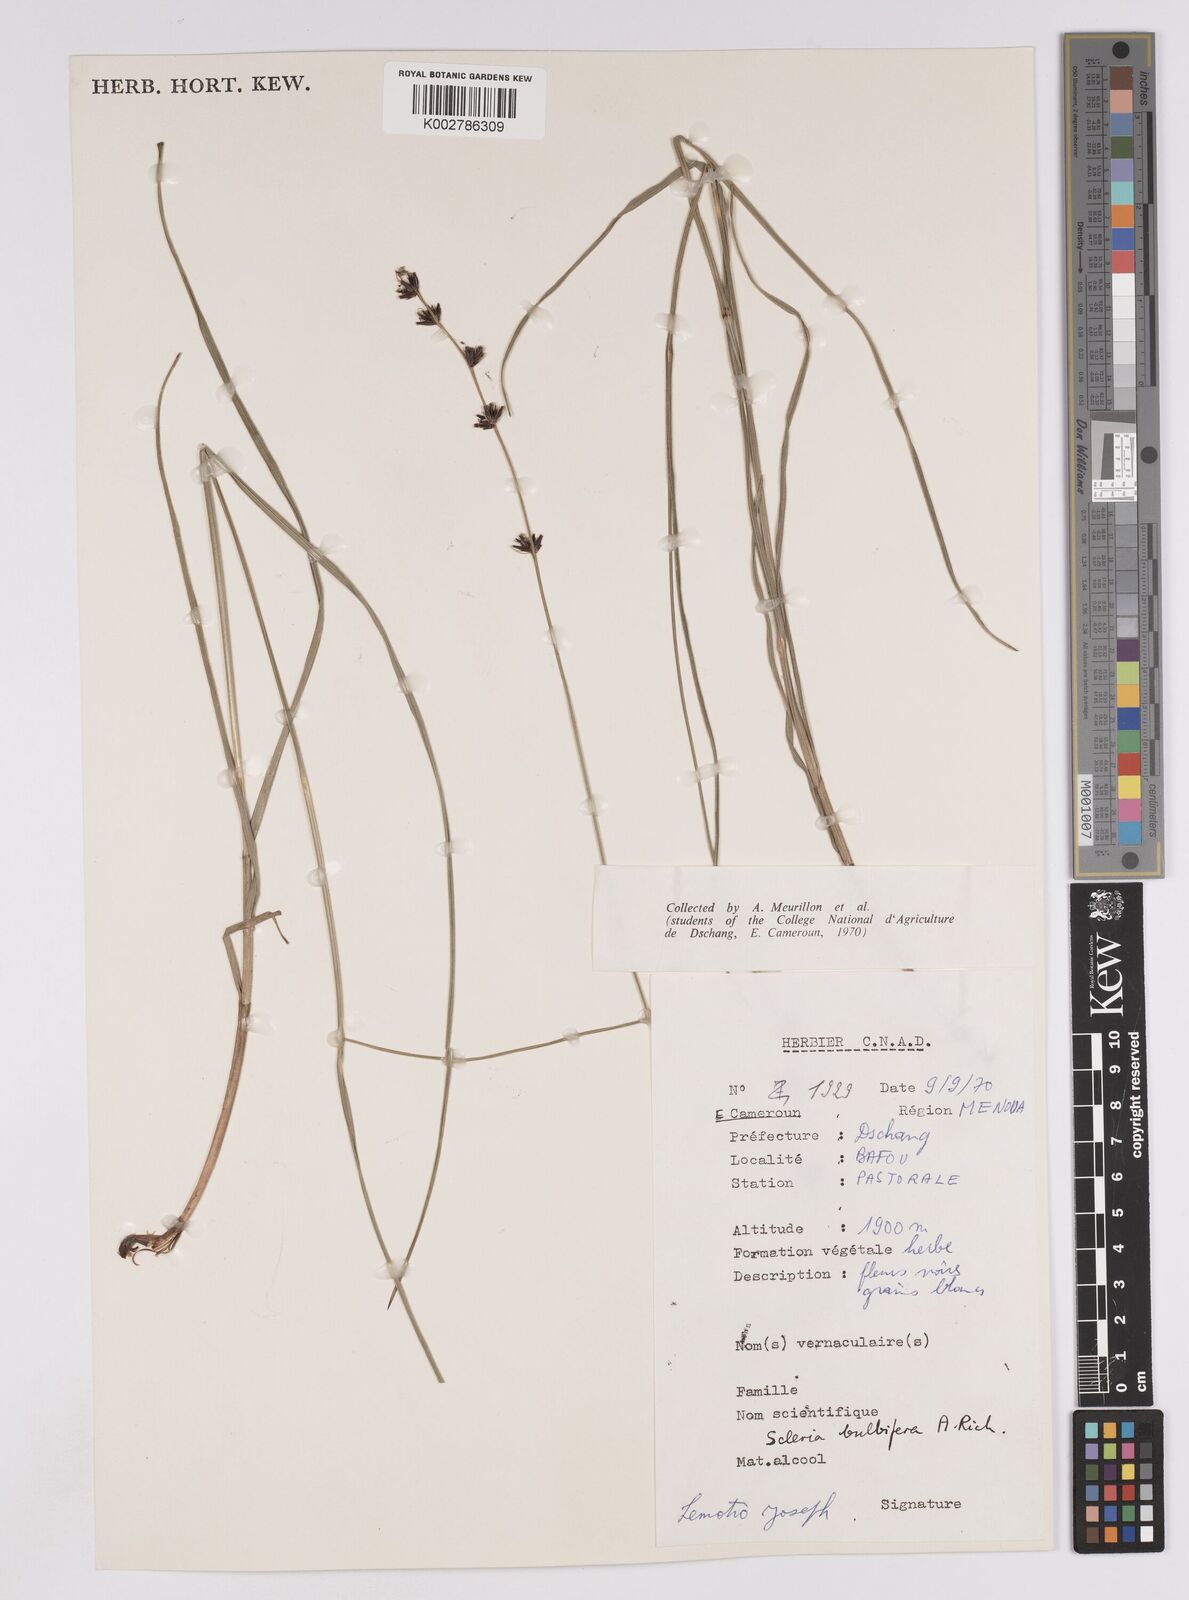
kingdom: Plantae
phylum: Tracheophyta
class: Liliopsida
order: Poales
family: Cyperaceae
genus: Scleria
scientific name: Scleria bulbifera
